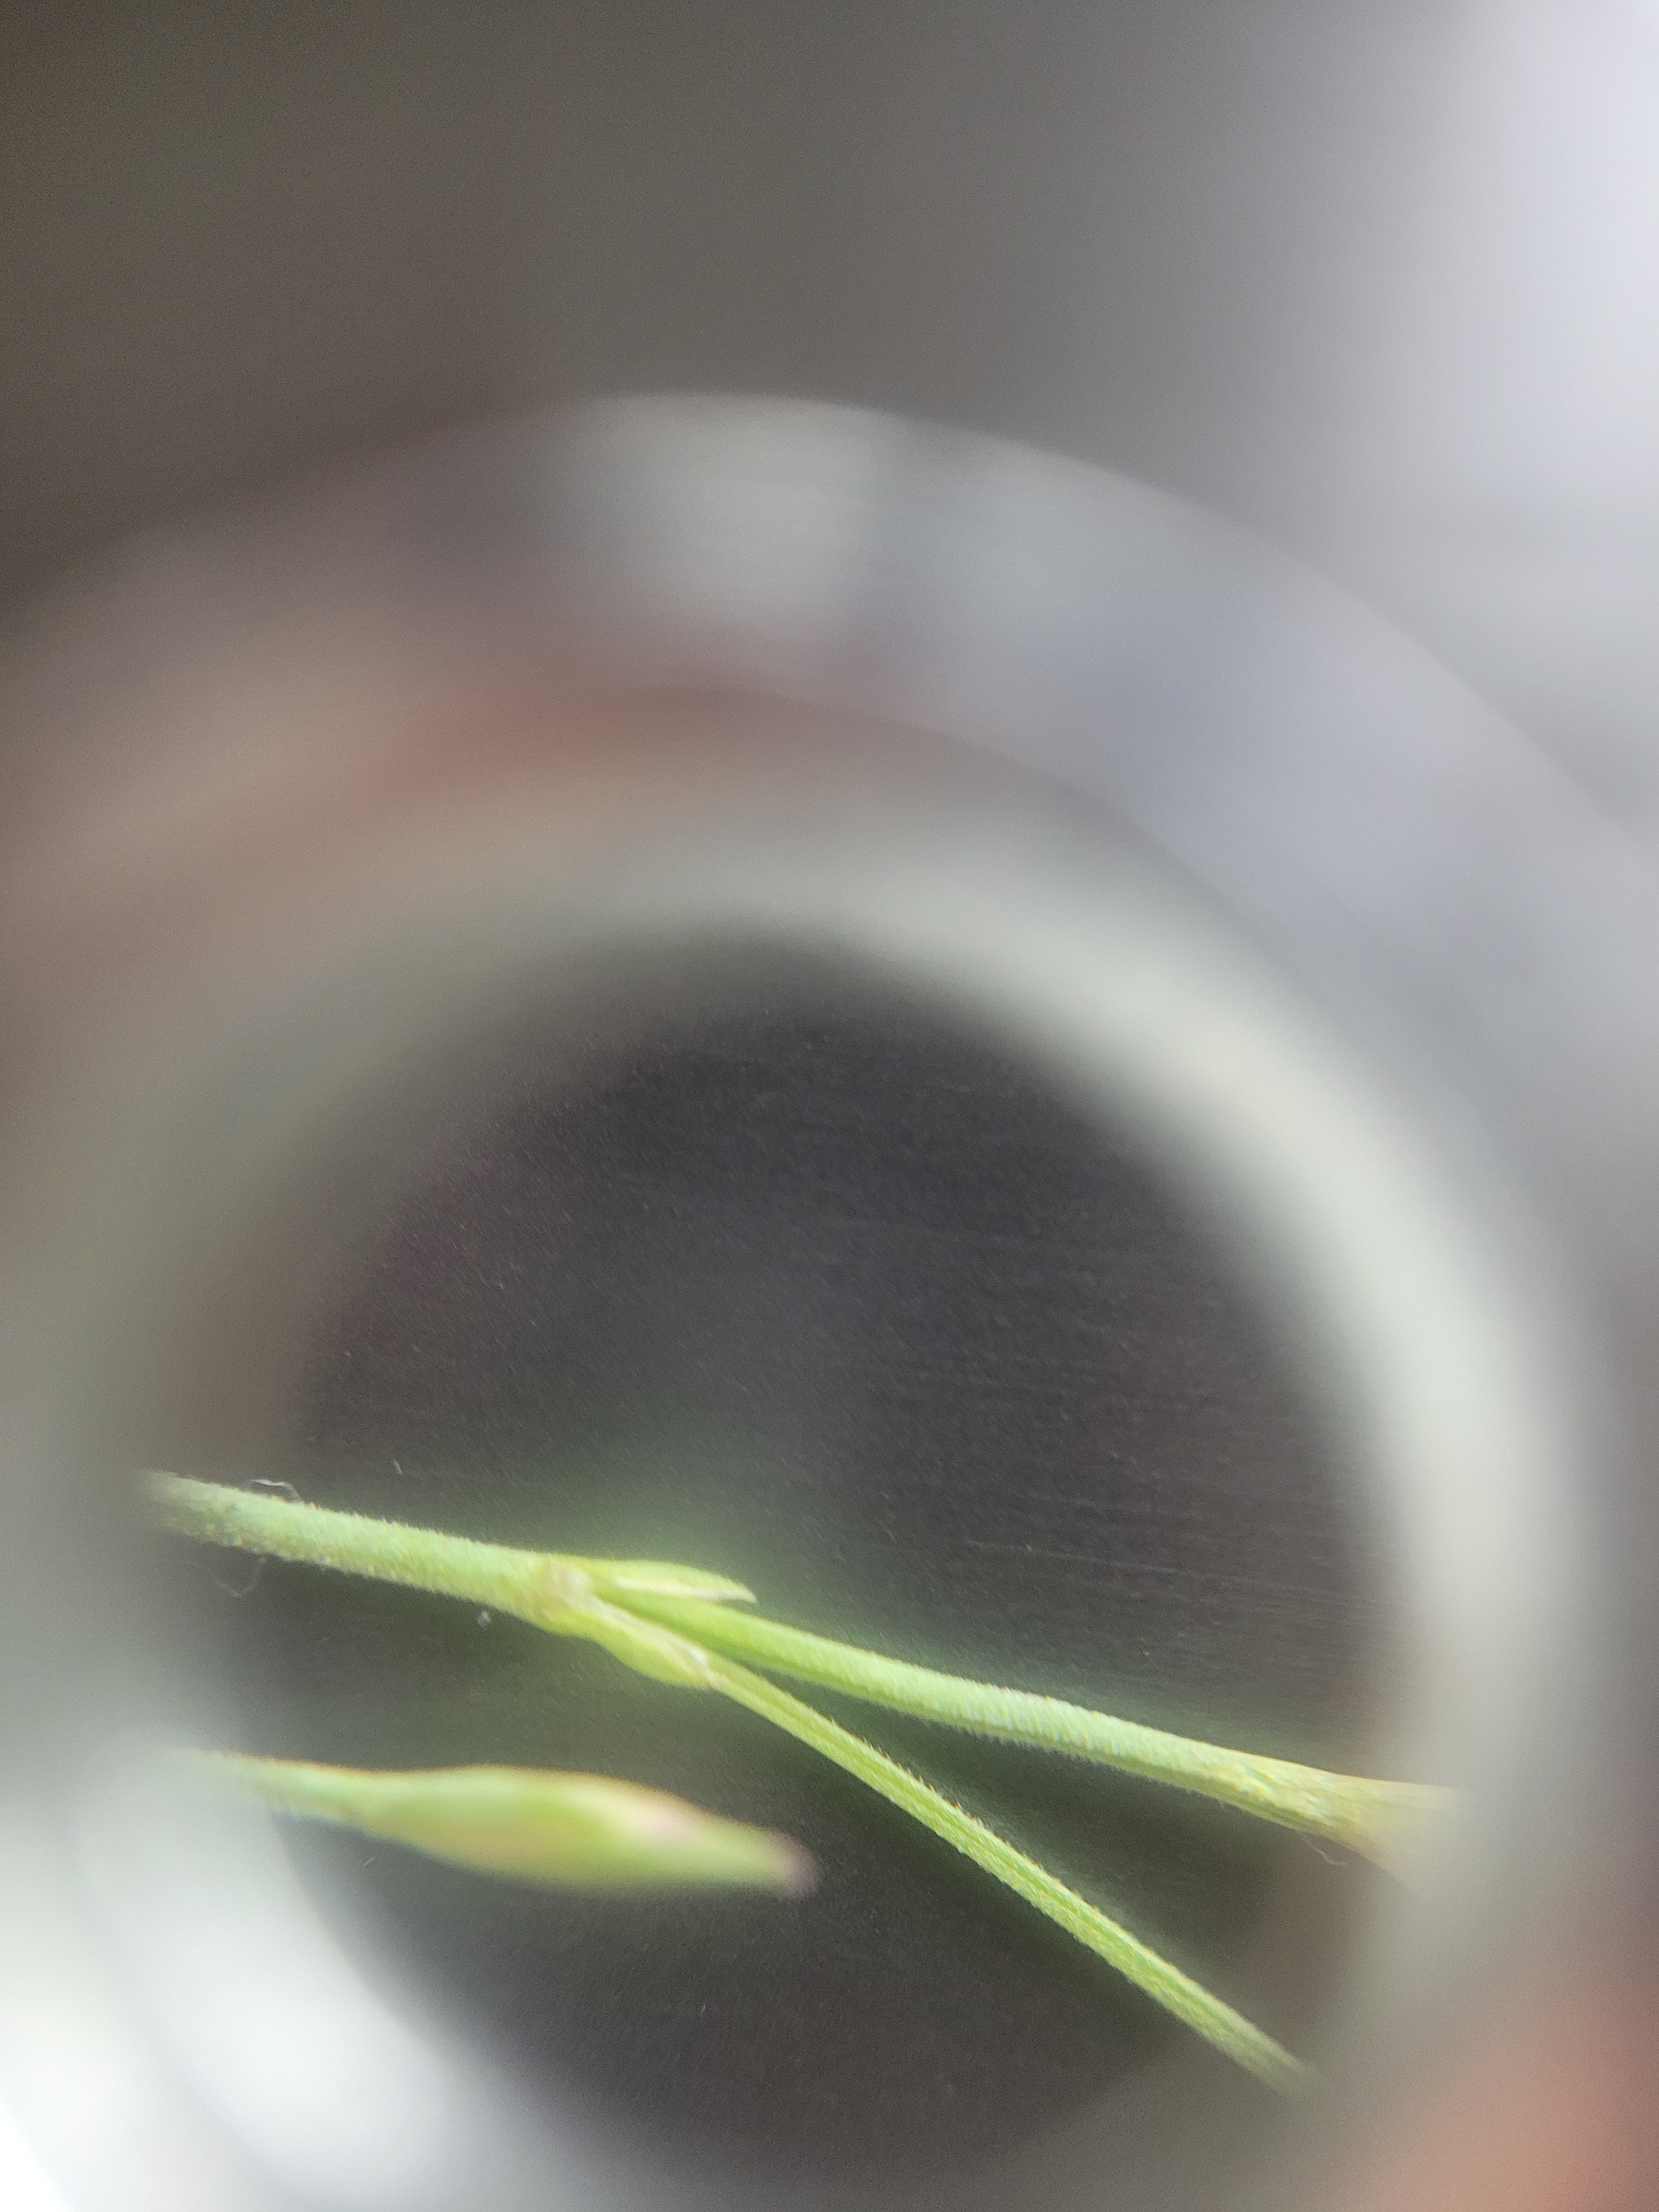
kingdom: Plantae
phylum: Tracheophyta
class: Magnoliopsida
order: Caryophyllales
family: Caryophyllaceae
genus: Dianthus
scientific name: Dianthus deltoides
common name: Bakke-nellike
